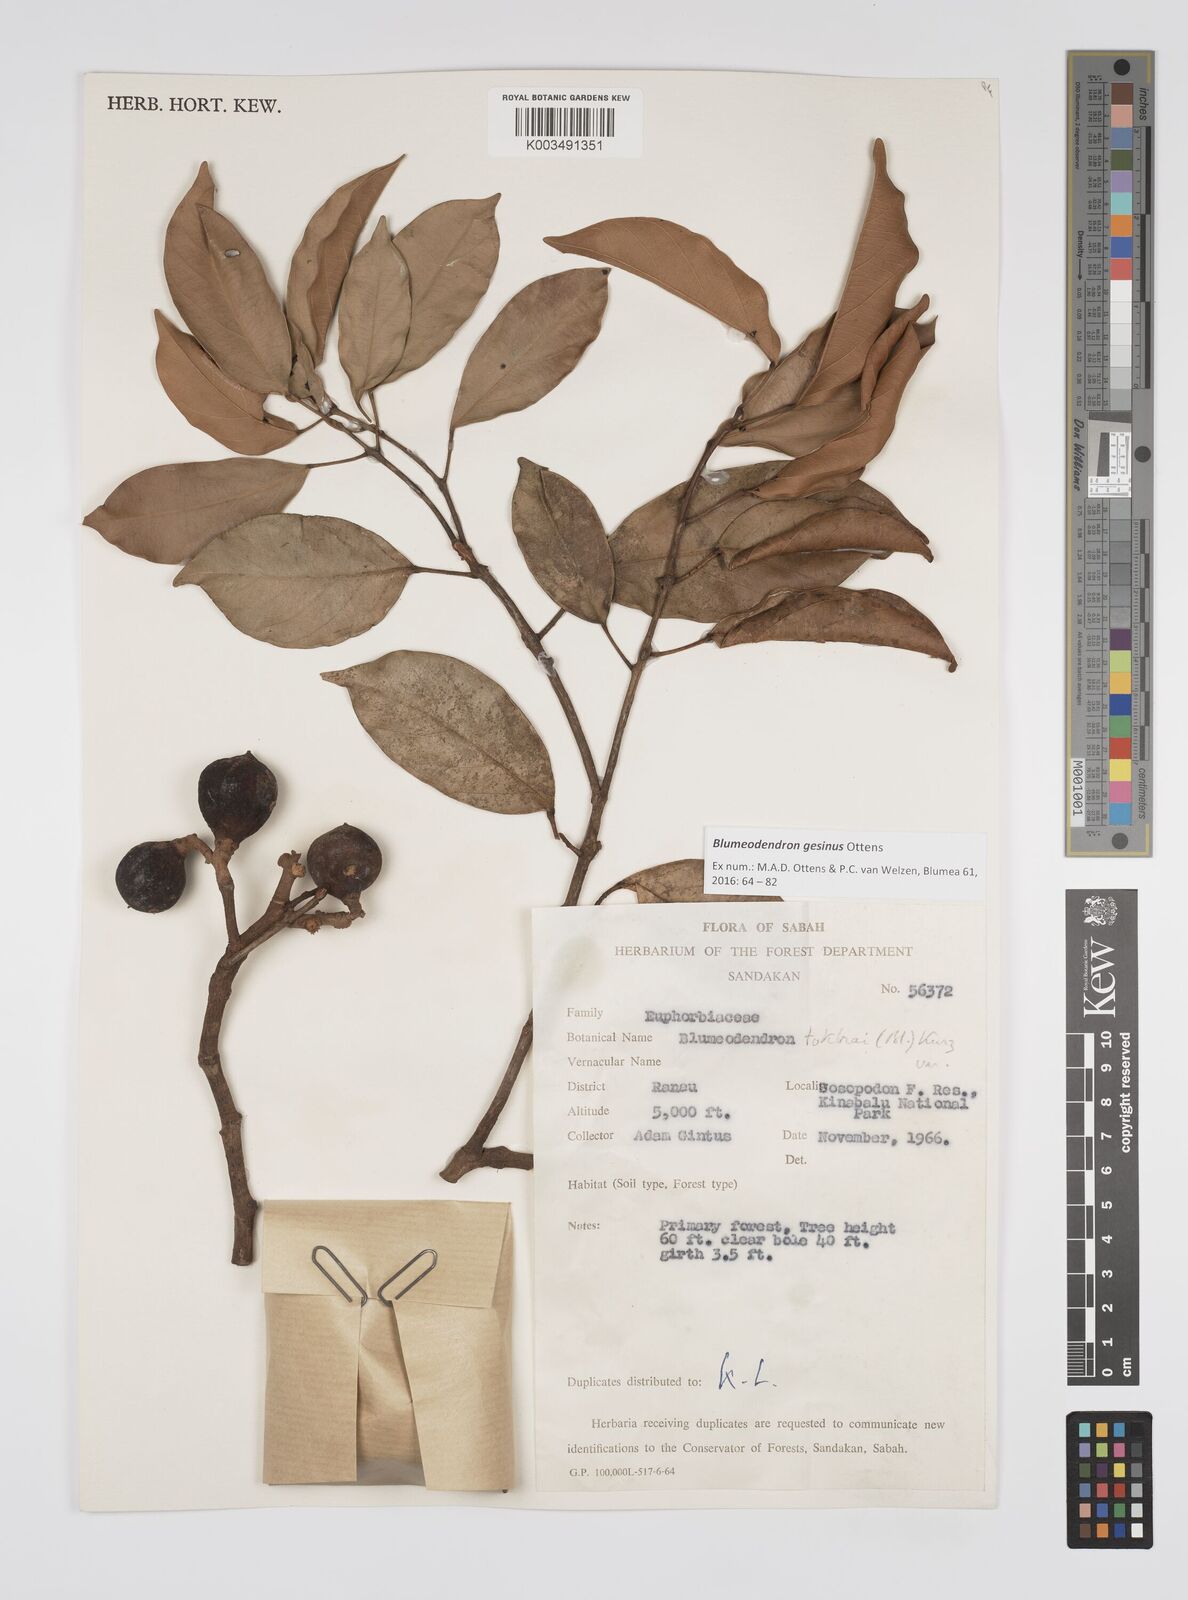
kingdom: Plantae
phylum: Tracheophyta
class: Magnoliopsida
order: Malpighiales
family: Euphorbiaceae
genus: Blumeodendron
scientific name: Blumeodendron gesinus
